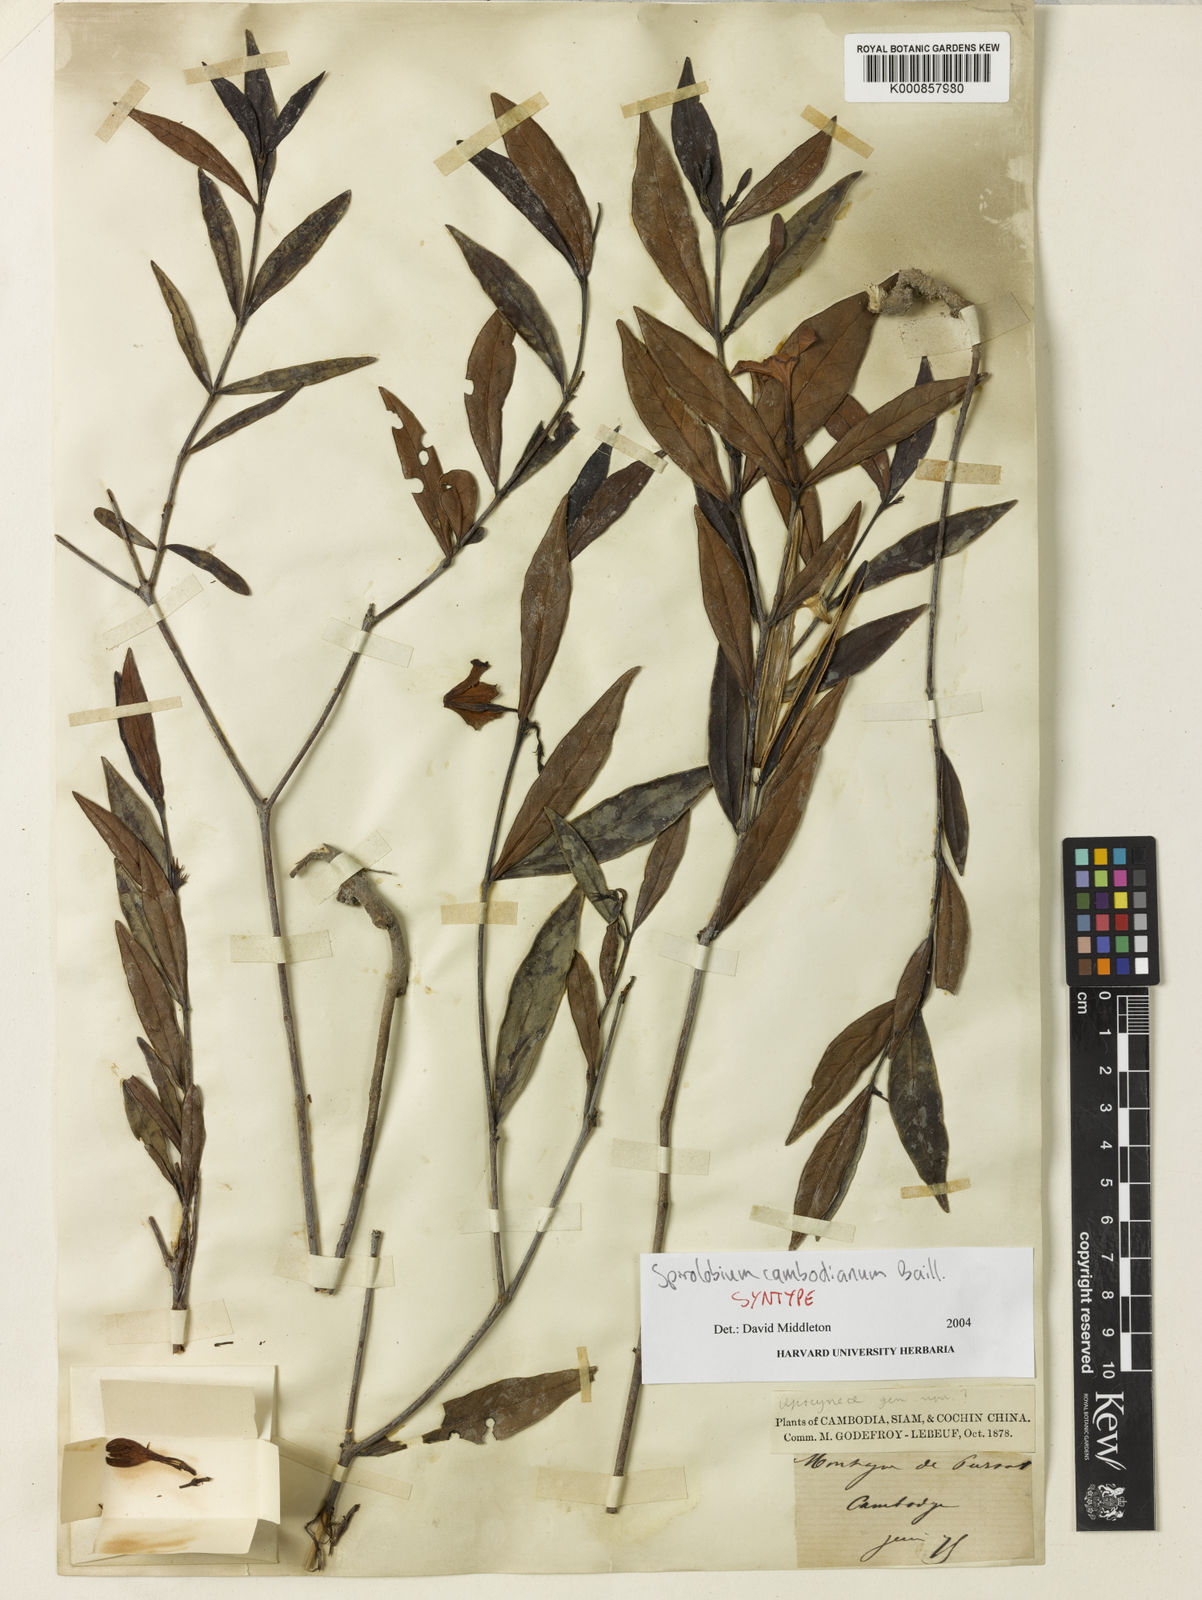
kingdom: Plantae
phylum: Tracheophyta
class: Magnoliopsida
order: Gentianales
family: Apocynaceae
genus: Spirolobium
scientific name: Spirolobium cambodianum
